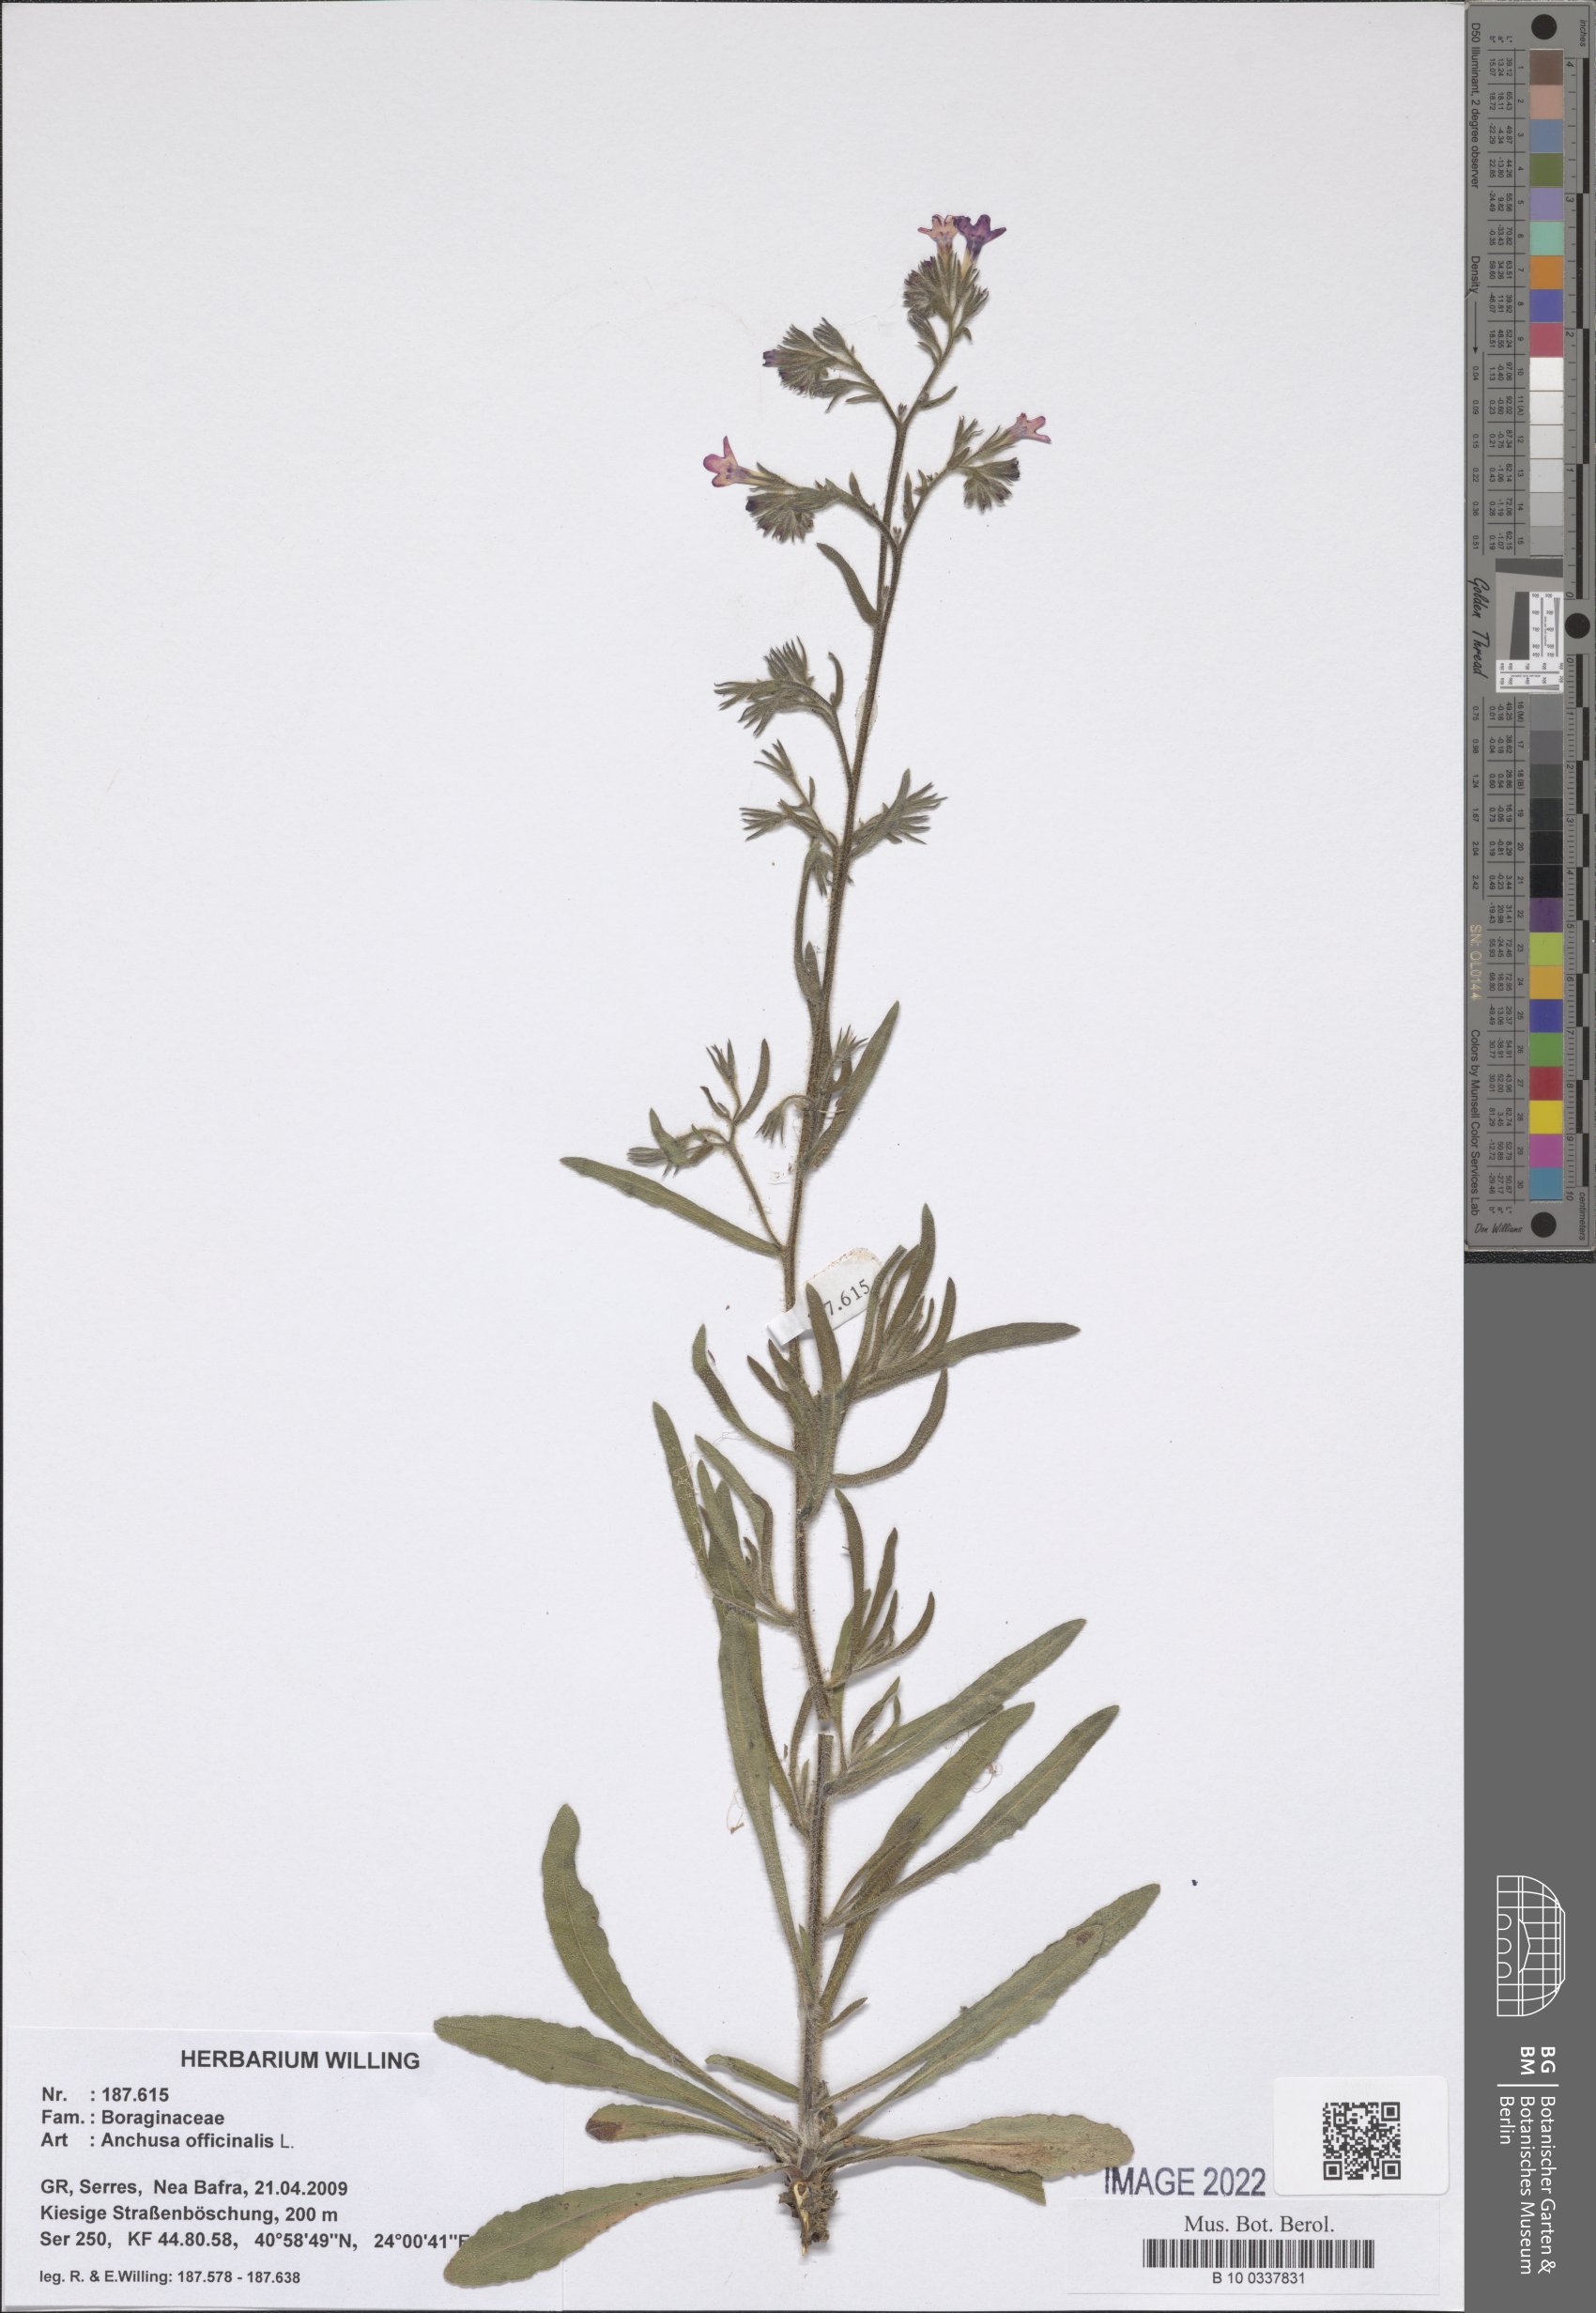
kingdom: Plantae
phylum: Tracheophyta
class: Magnoliopsida
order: Boraginales
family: Boraginaceae
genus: Anchusa
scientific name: Anchusa officinalis
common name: Alkanet
